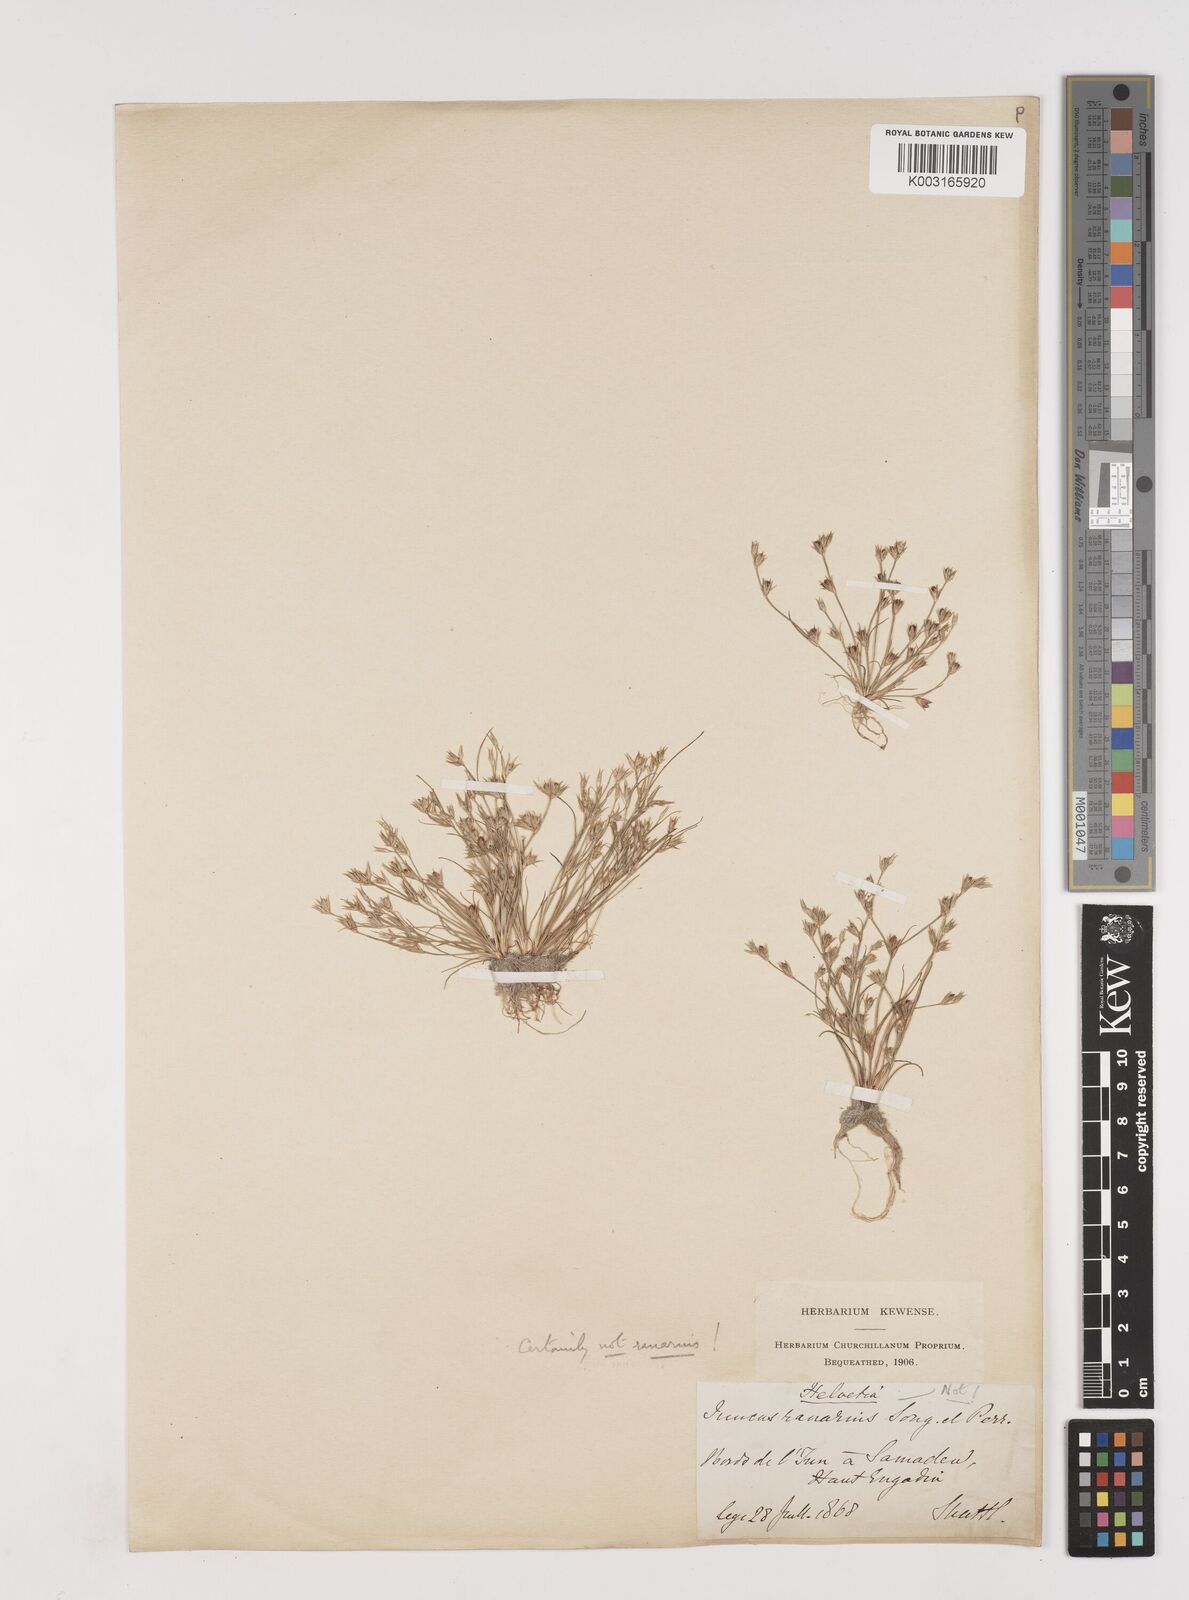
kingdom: Plantae
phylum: Tracheophyta
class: Liliopsida
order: Poales
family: Juncaceae
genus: Juncus
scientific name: Juncus bufonius
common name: Toad rush
